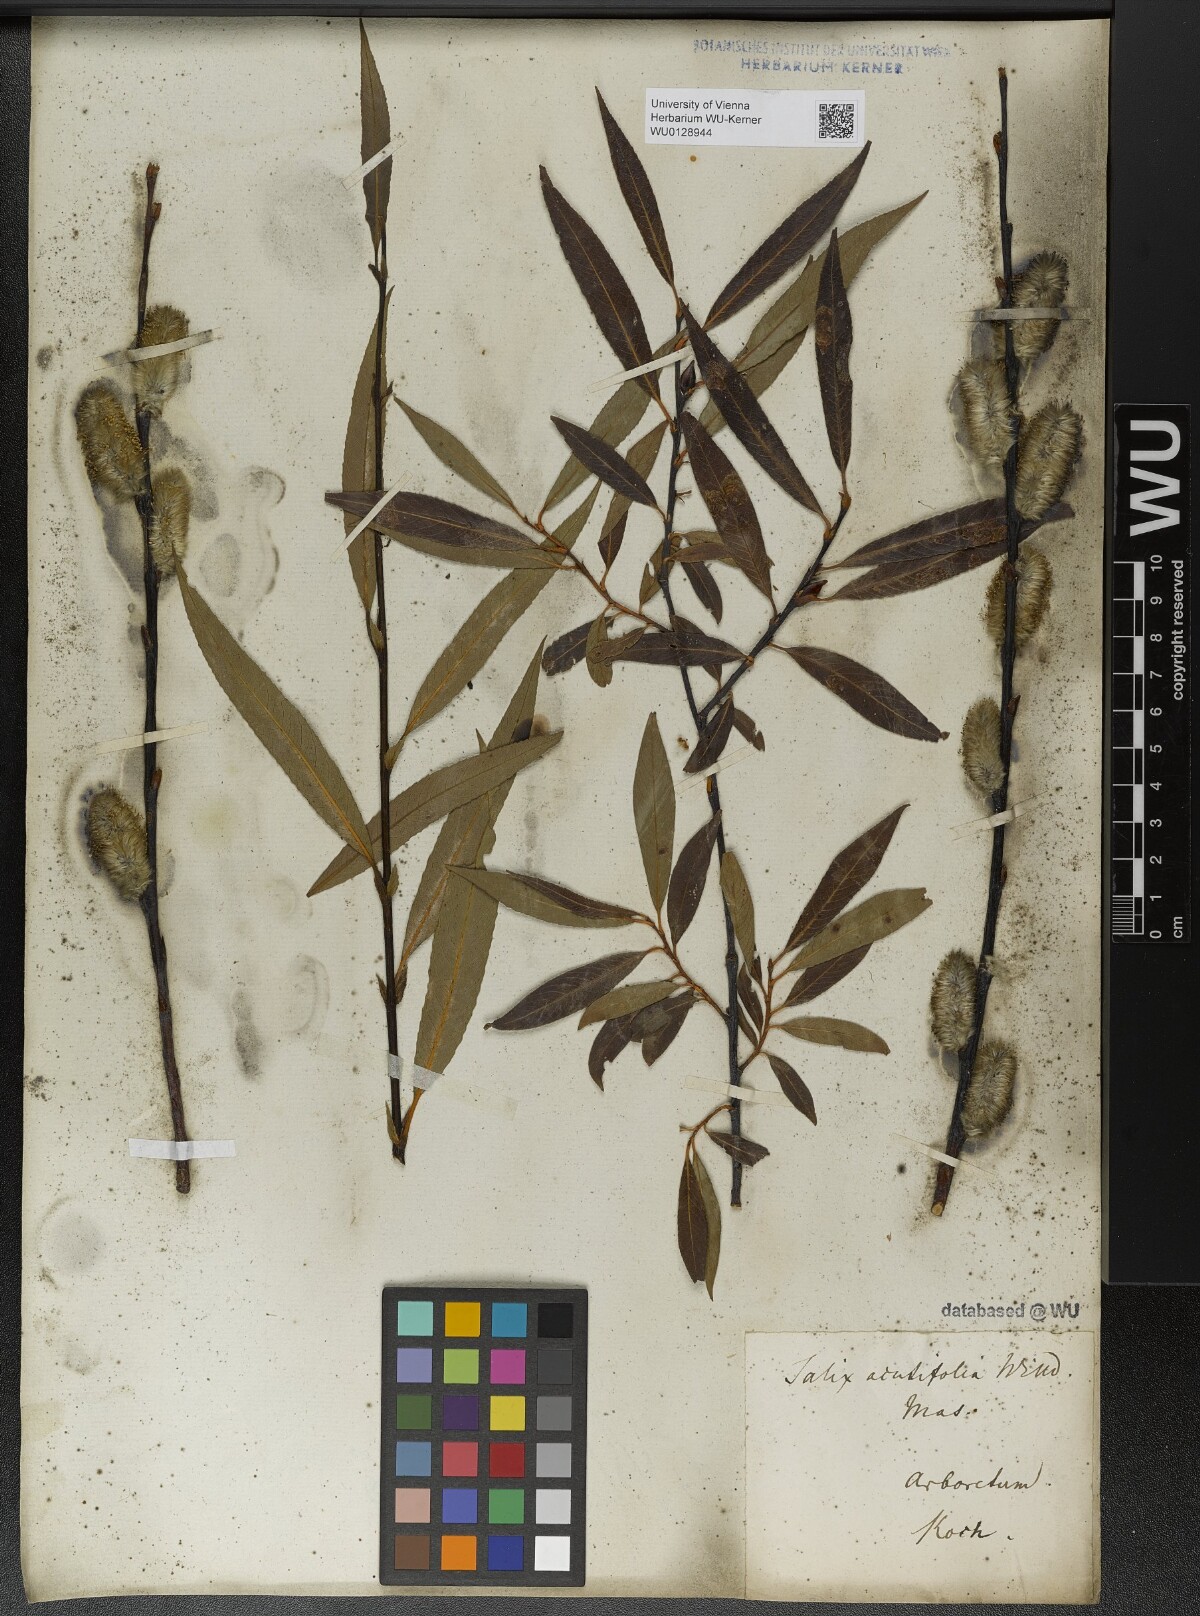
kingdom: Plantae
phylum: Tracheophyta
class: Magnoliopsida
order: Malpighiales
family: Salicaceae
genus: Salix
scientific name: Salix acutifolia
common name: Siberian violet-willow
